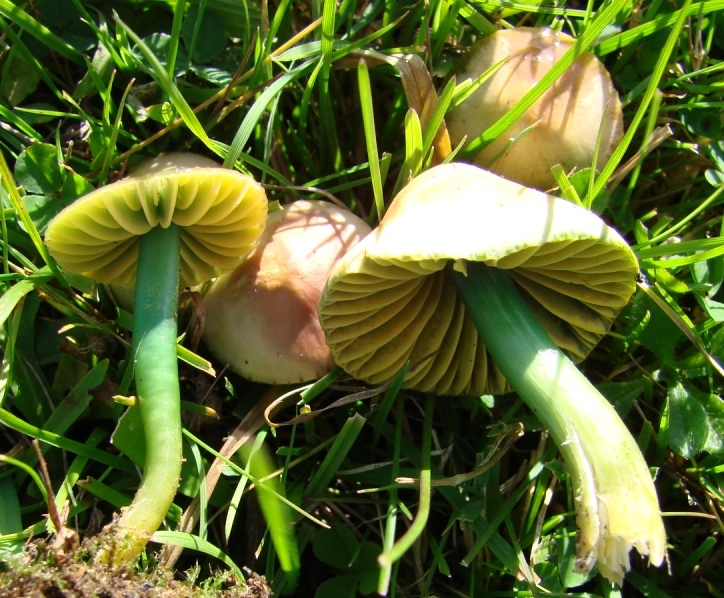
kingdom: Fungi
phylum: Basidiomycota
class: Agaricomycetes
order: Agaricales
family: Hygrophoraceae
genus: Gliophorus
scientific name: Gliophorus psittacinus
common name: papegøje-vokshat
